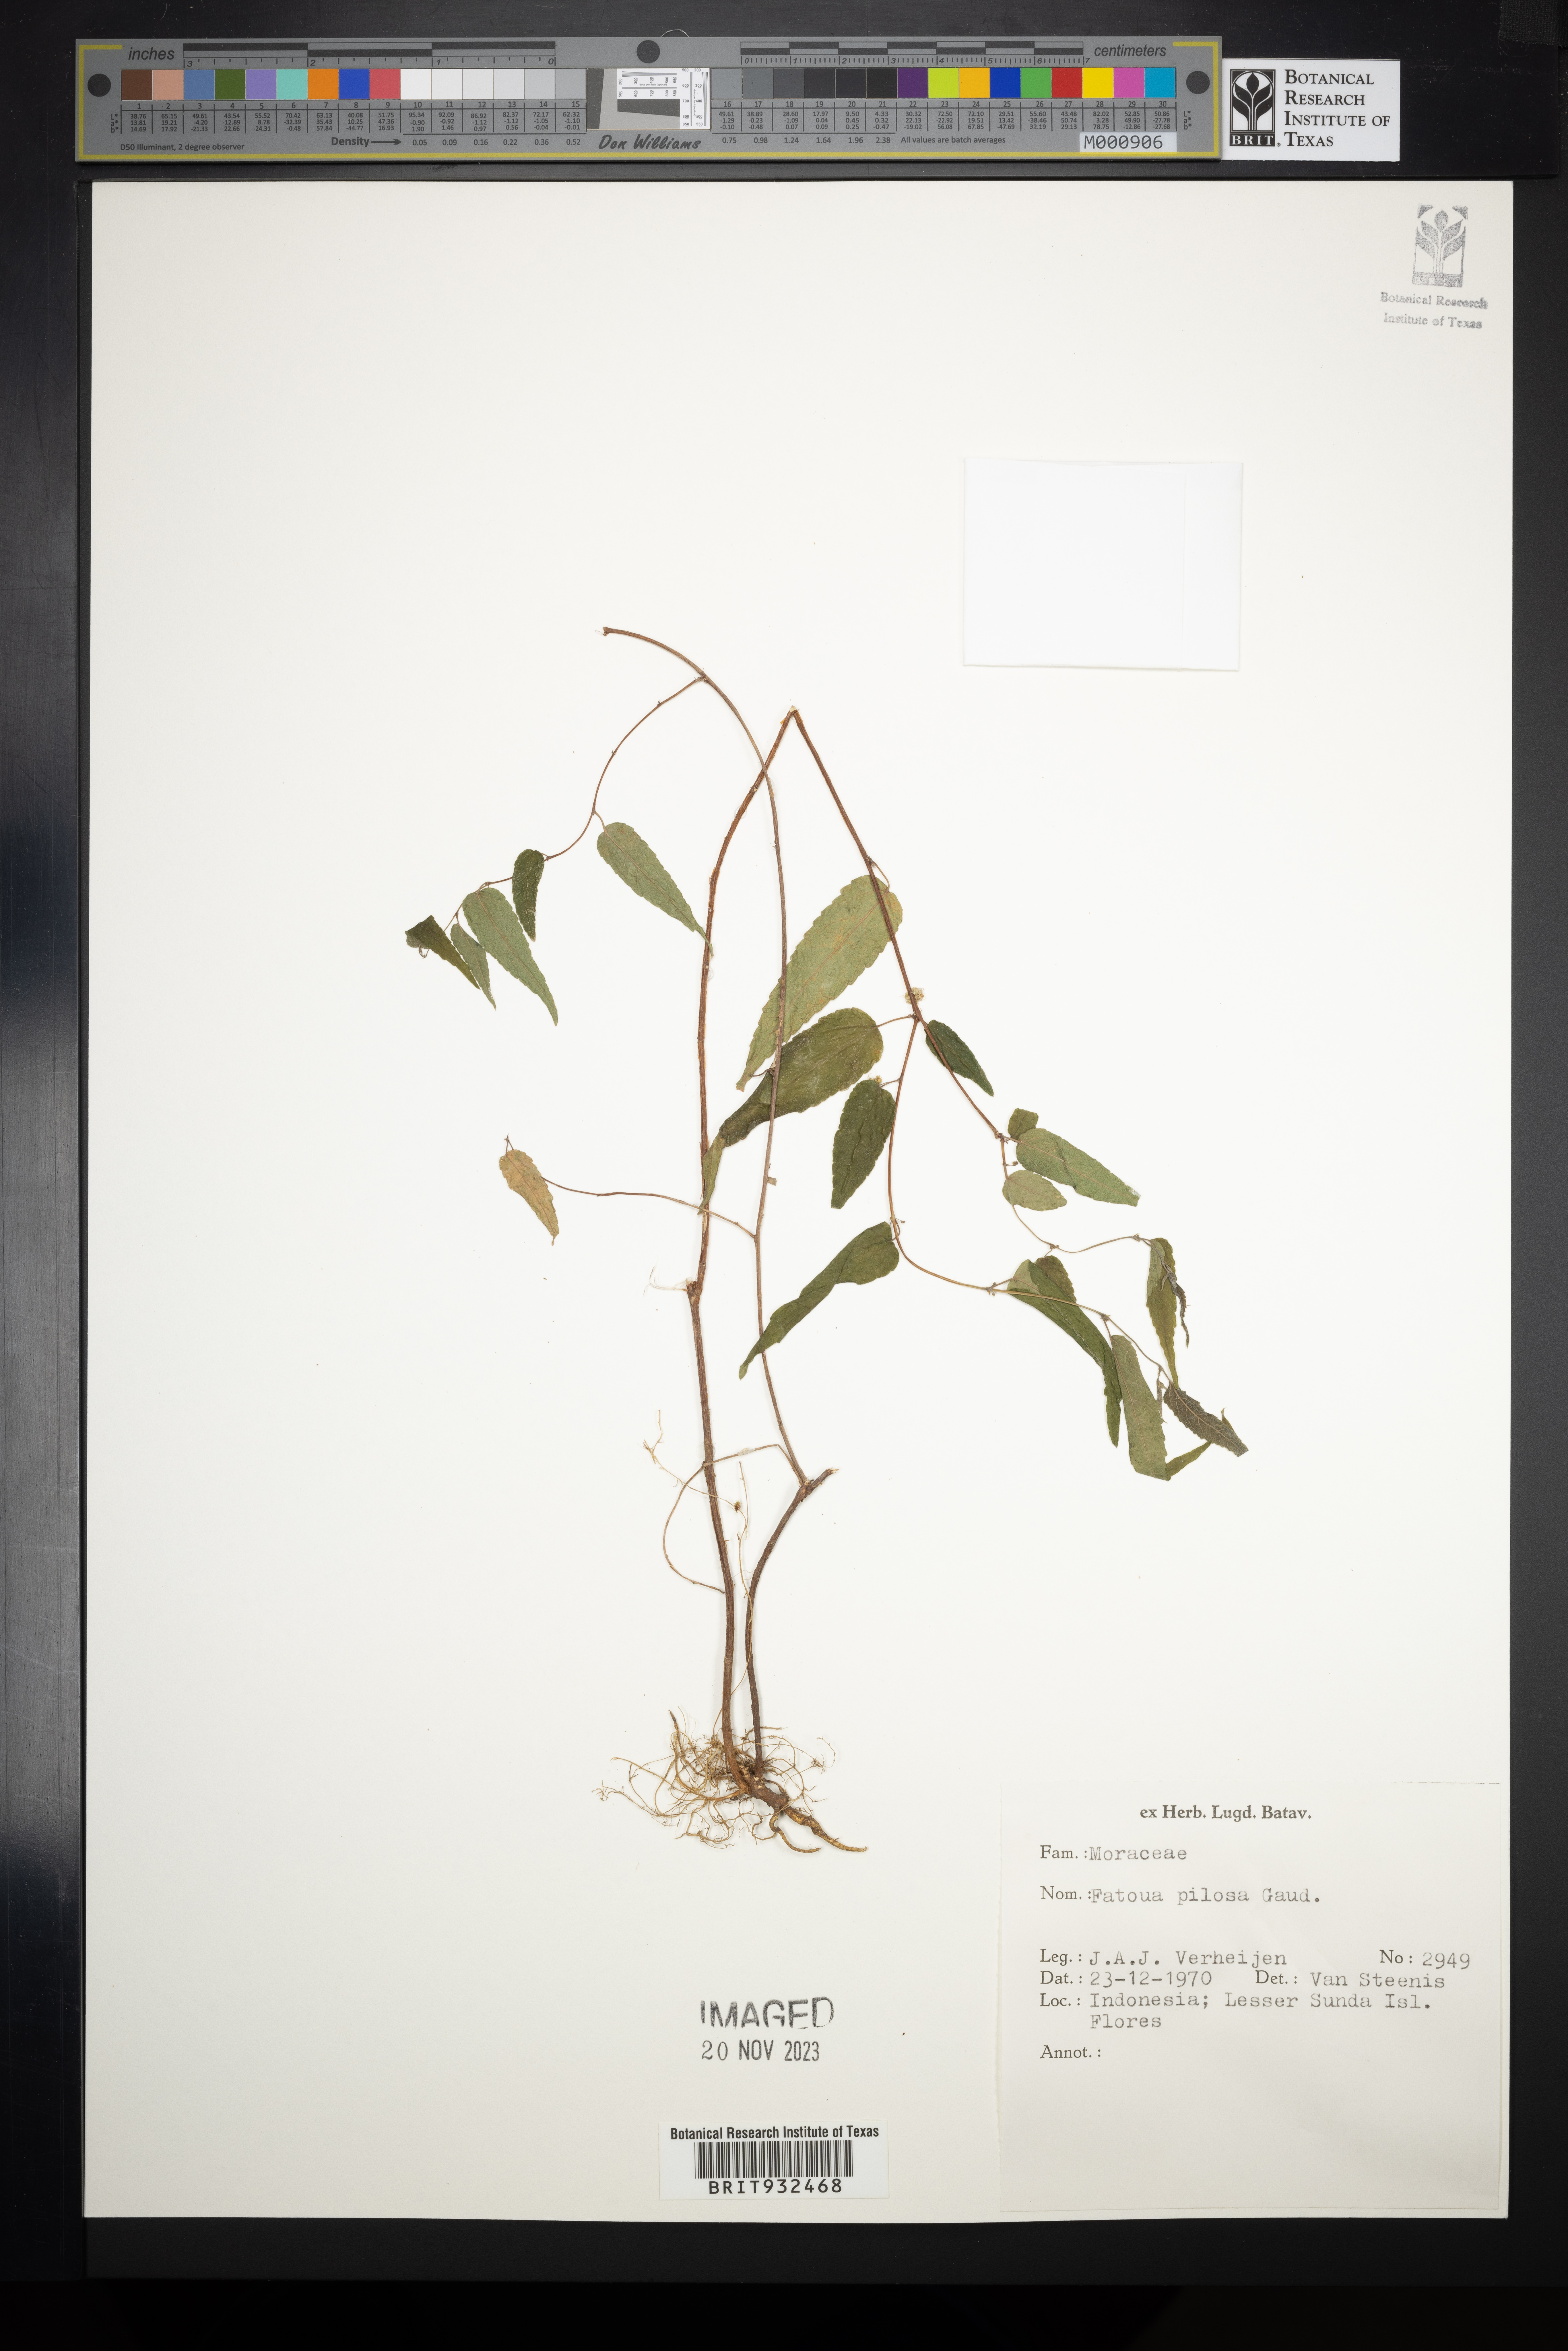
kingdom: Plantae
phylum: Tracheophyta
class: Magnoliopsida
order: Rosales
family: Moraceae
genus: Fatoua
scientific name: Fatoua
